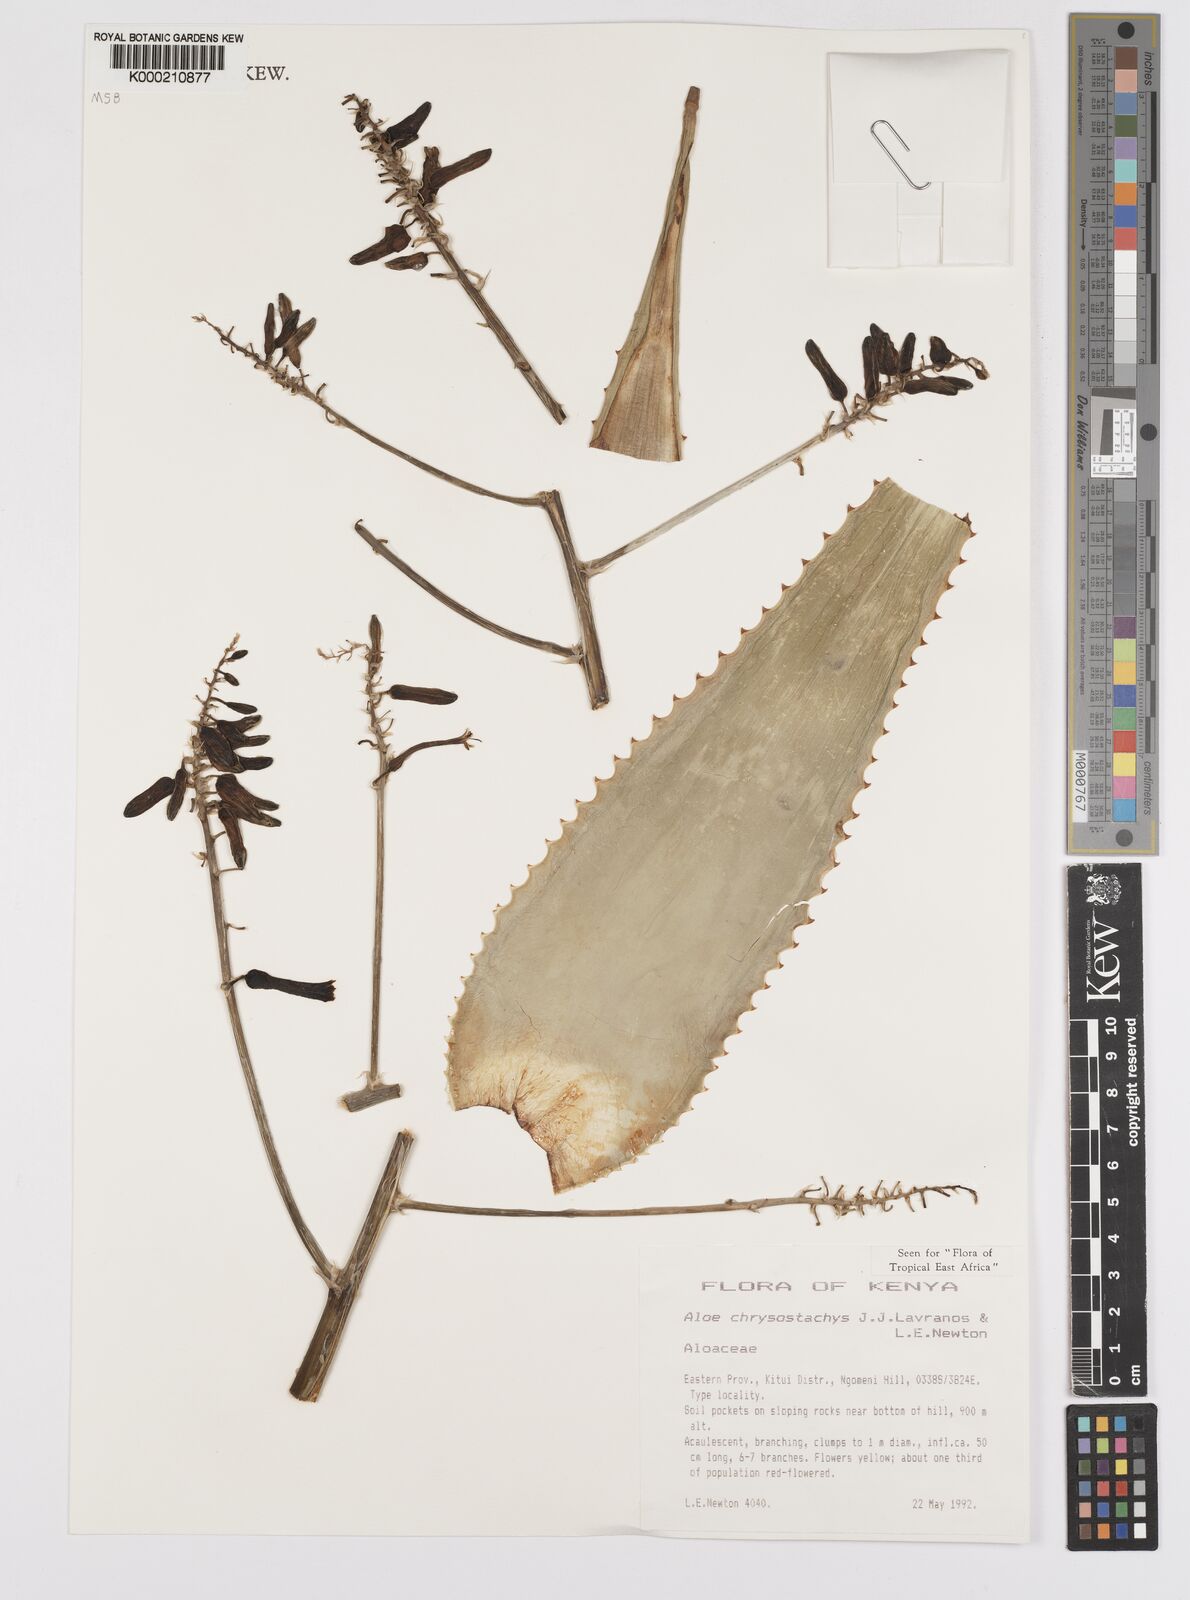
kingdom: Plantae
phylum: Tracheophyta
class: Liliopsida
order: Asparagales
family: Asphodelaceae
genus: Aloe
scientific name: Aloe chrysostachys
